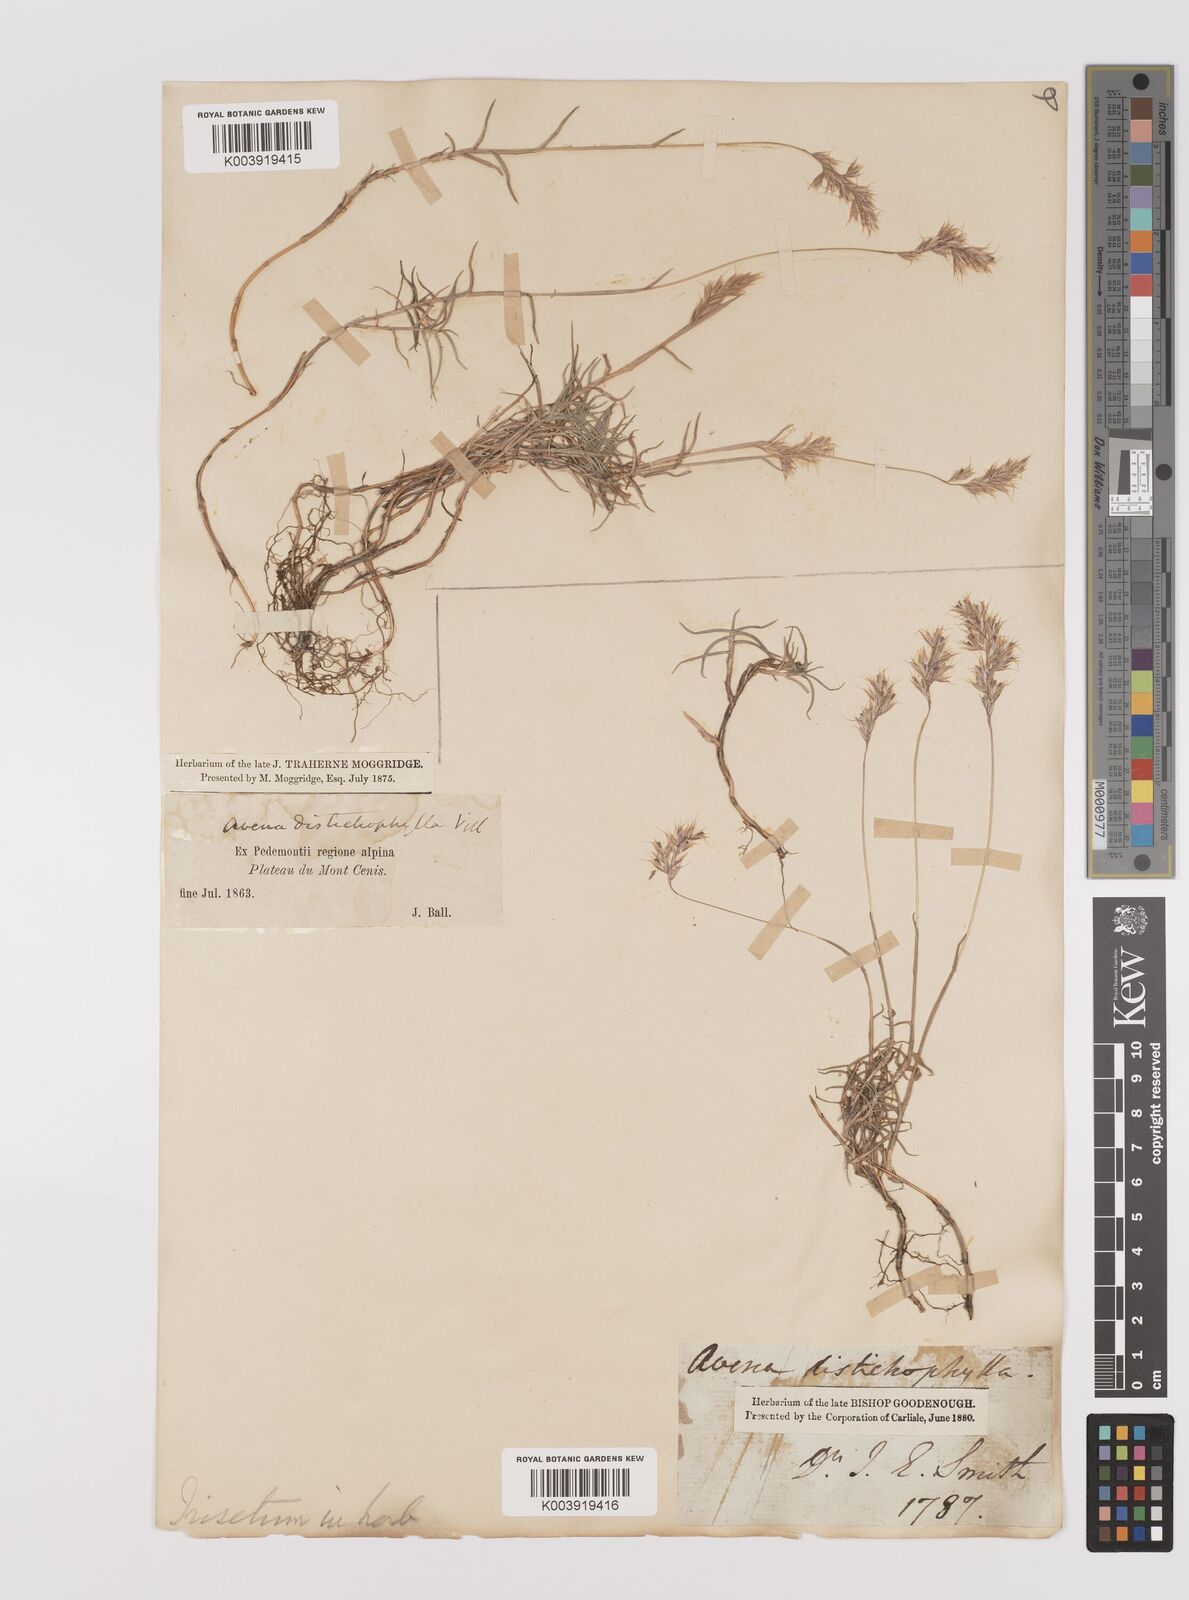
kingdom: Plantae
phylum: Tracheophyta
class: Liliopsida
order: Poales
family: Poaceae
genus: Acrospelion
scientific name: Acrospelion distichophyllum
